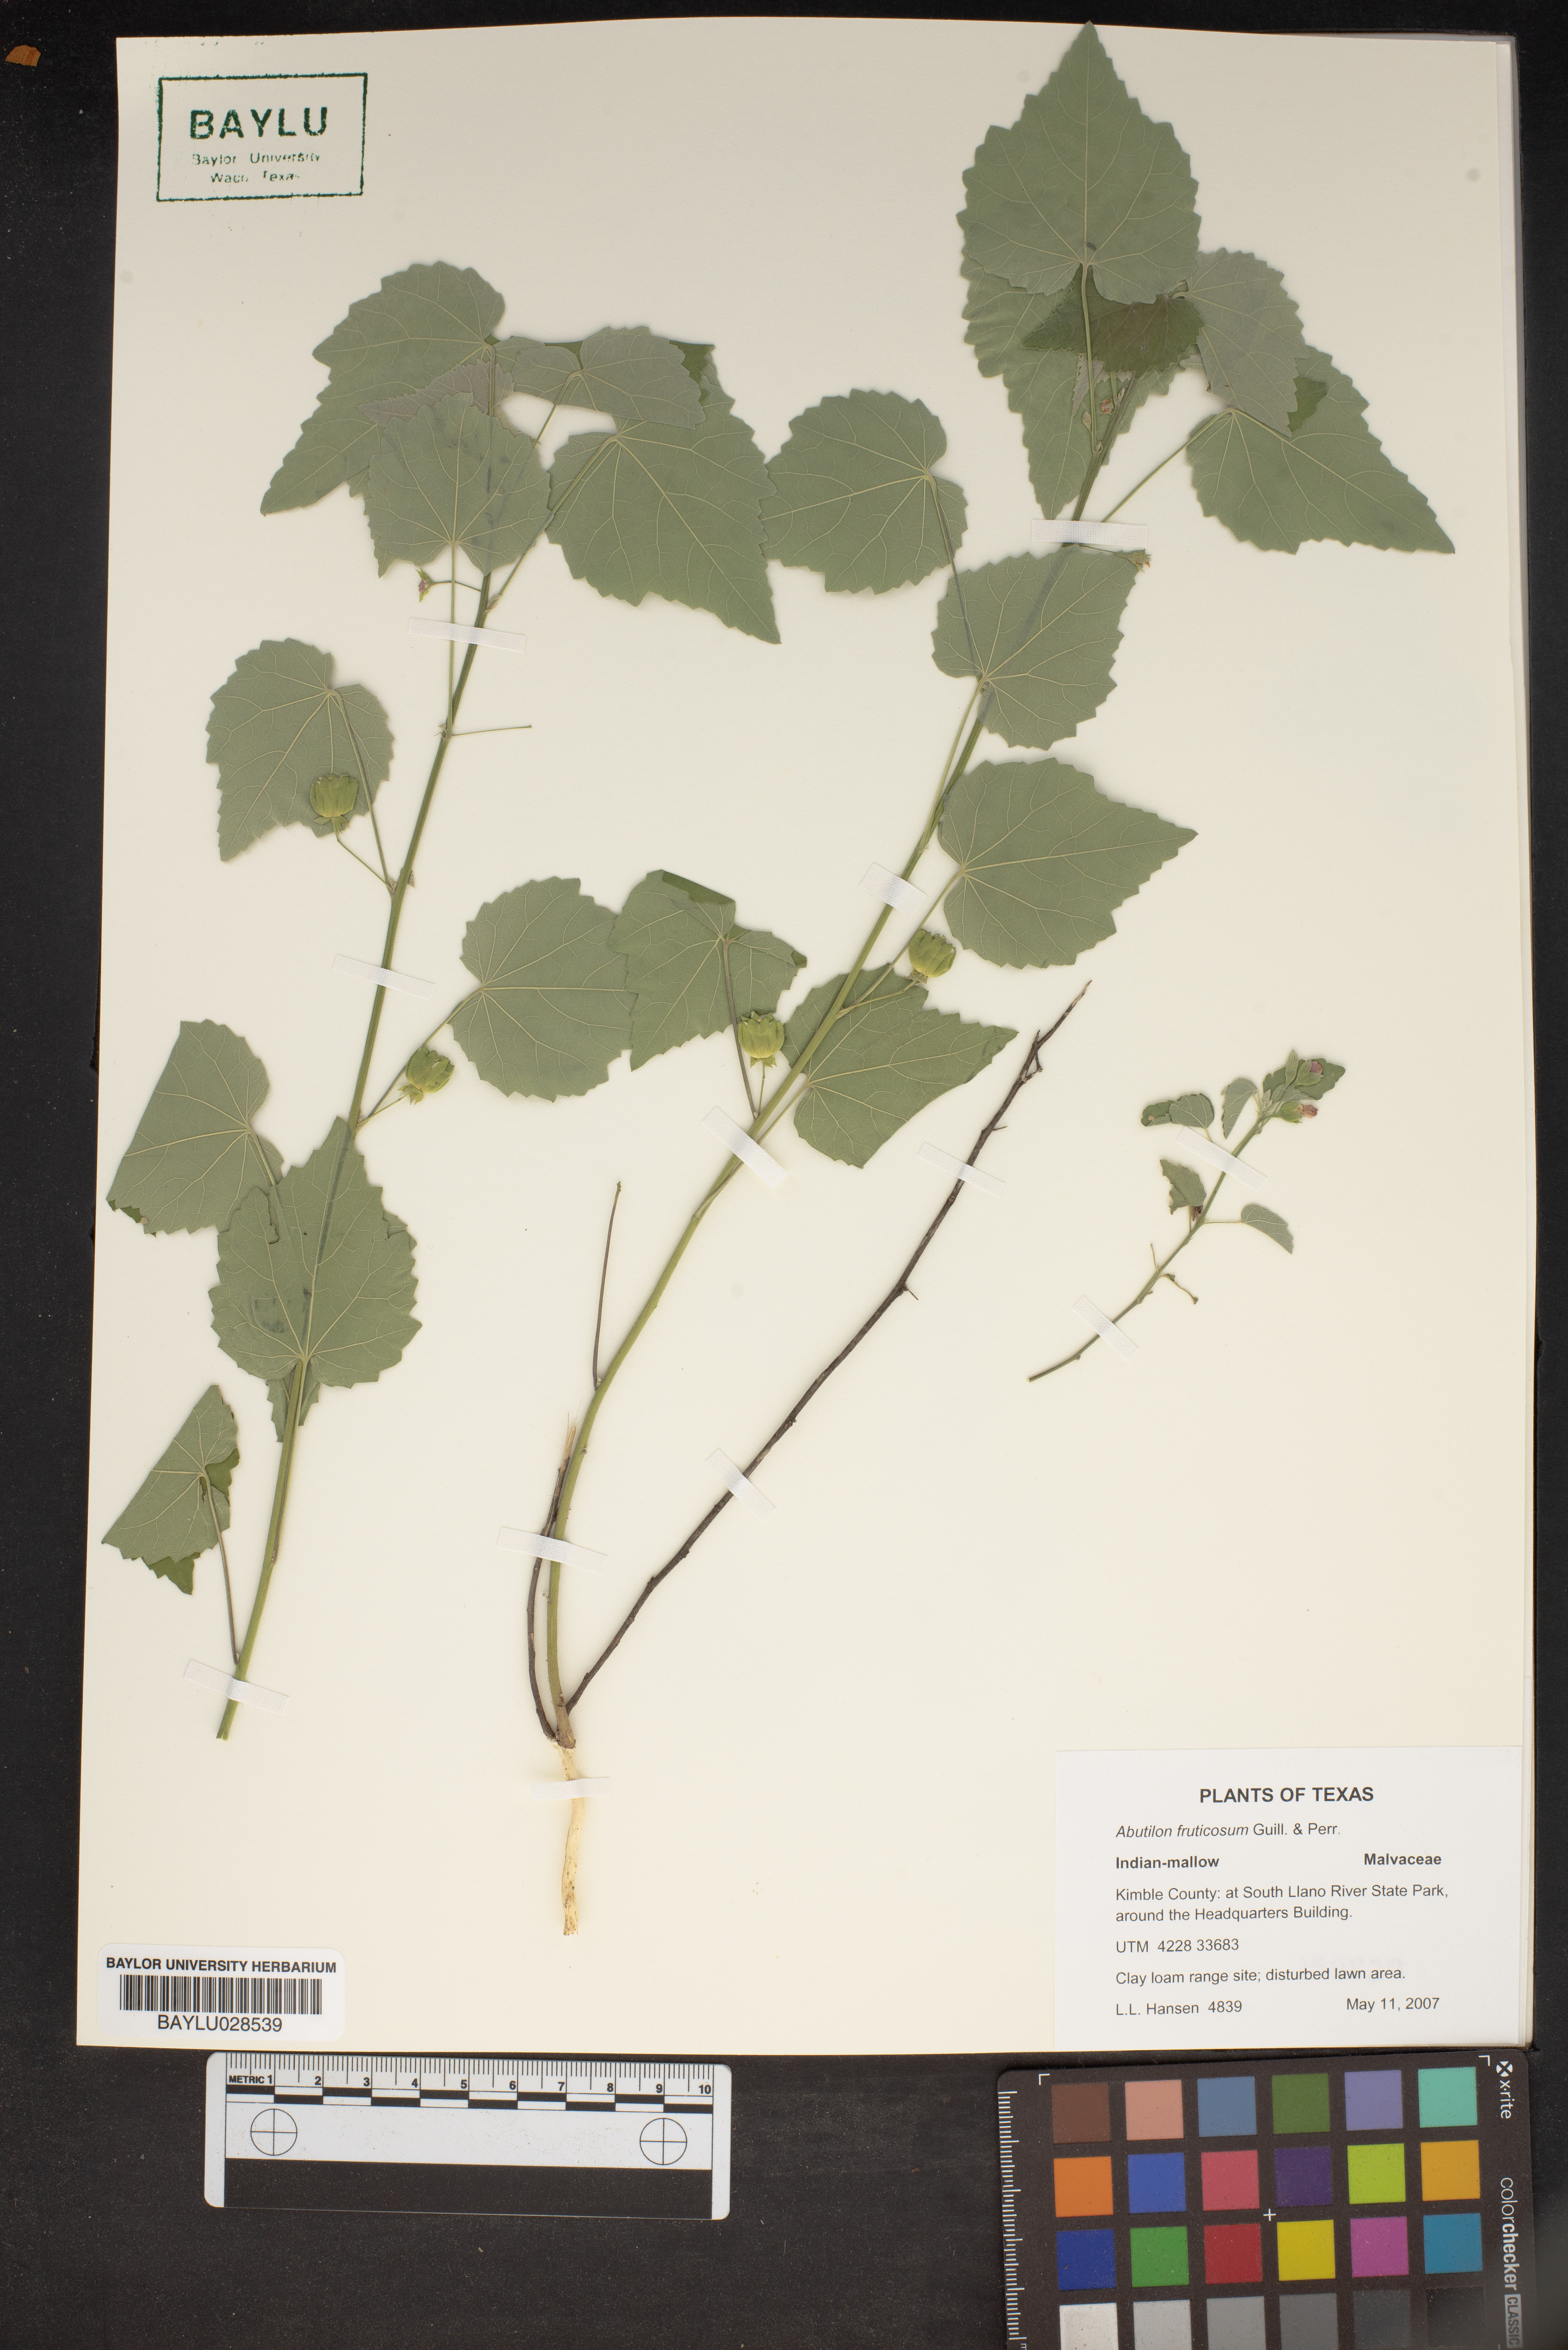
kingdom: Plantae
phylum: Tracheophyta
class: Magnoliopsida
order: Malvales
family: Malvaceae
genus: Abutilon
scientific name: Abutilon fruticosum
